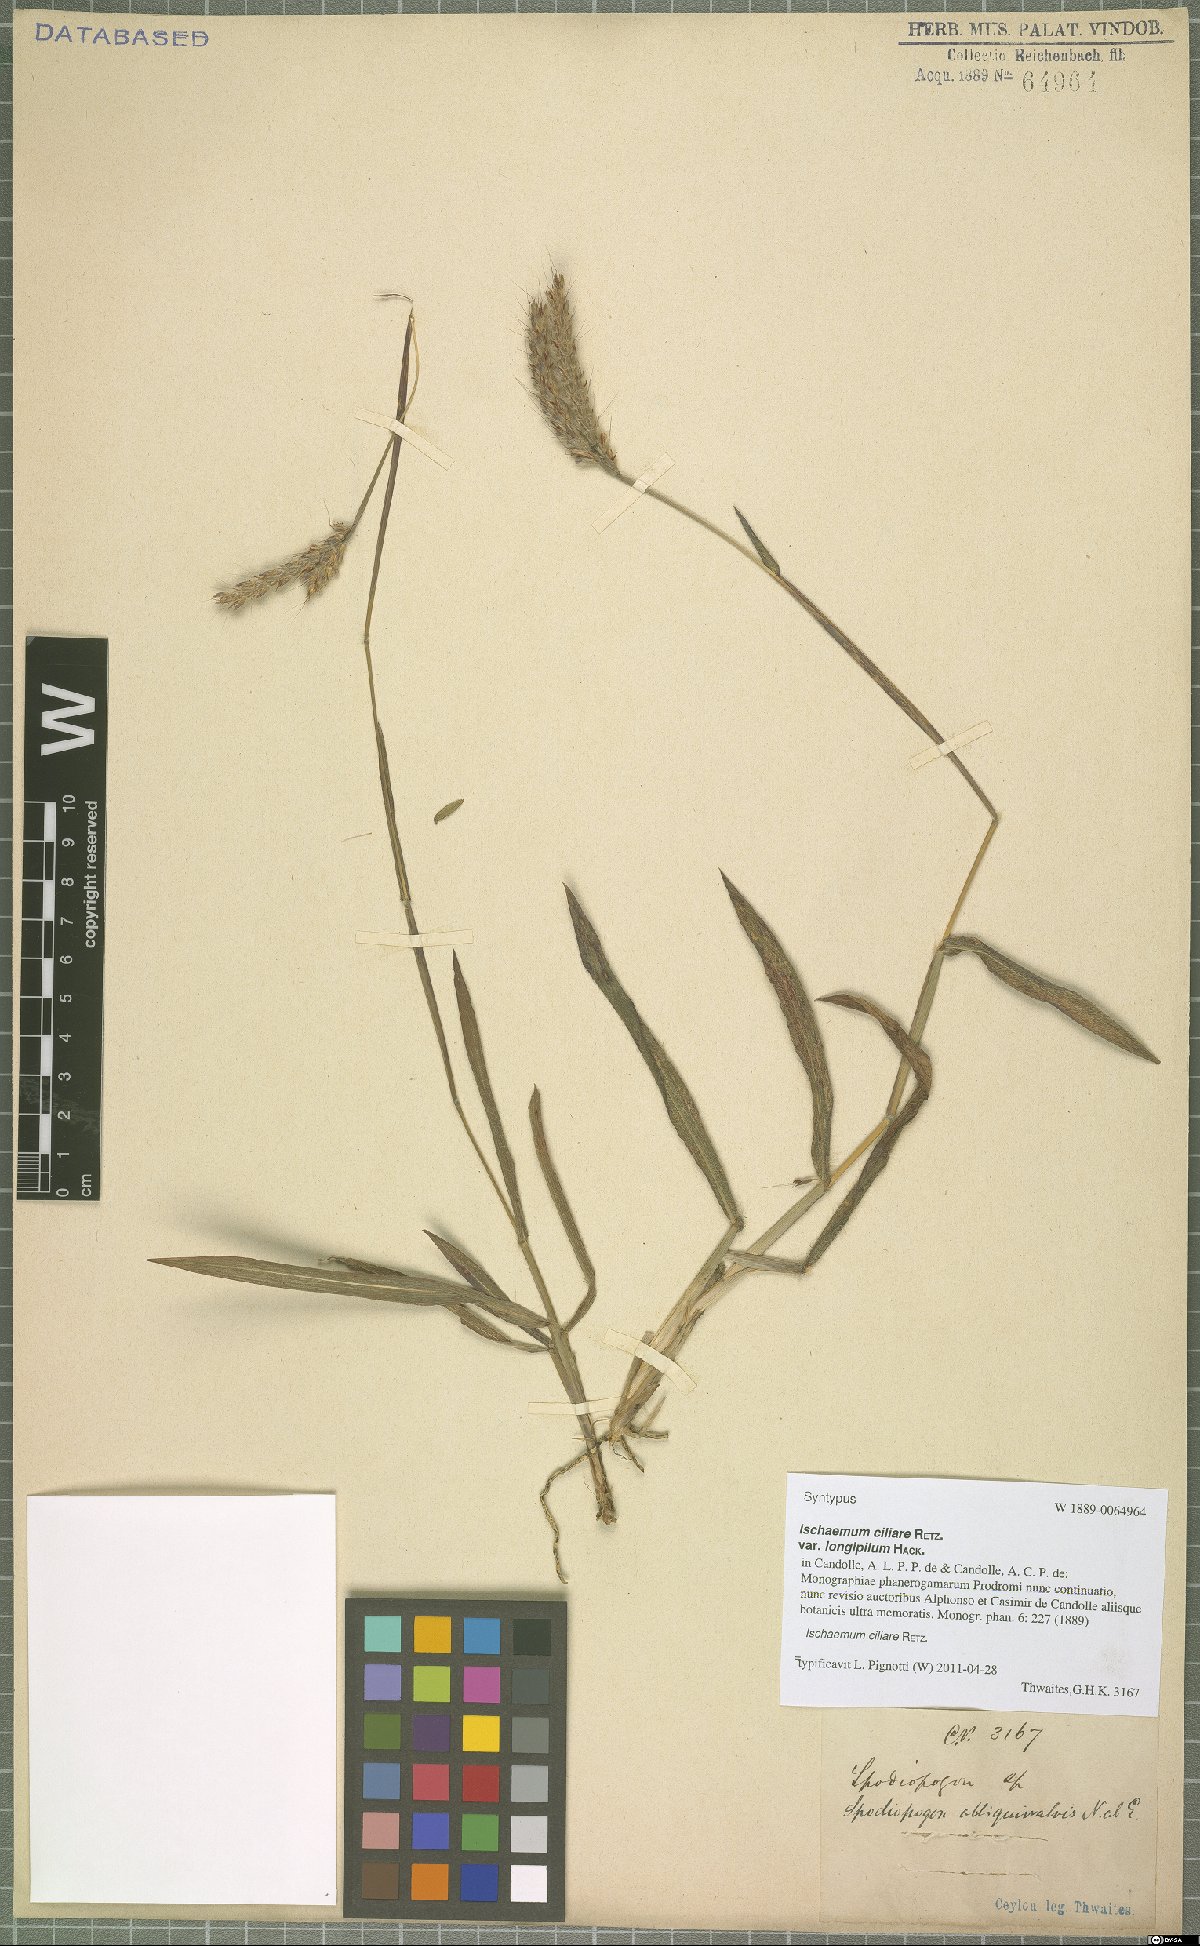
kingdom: Plantae
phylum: Tracheophyta
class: Liliopsida
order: Poales
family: Poaceae
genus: Ischaemum
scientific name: Ischaemum ciliare
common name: Grass
